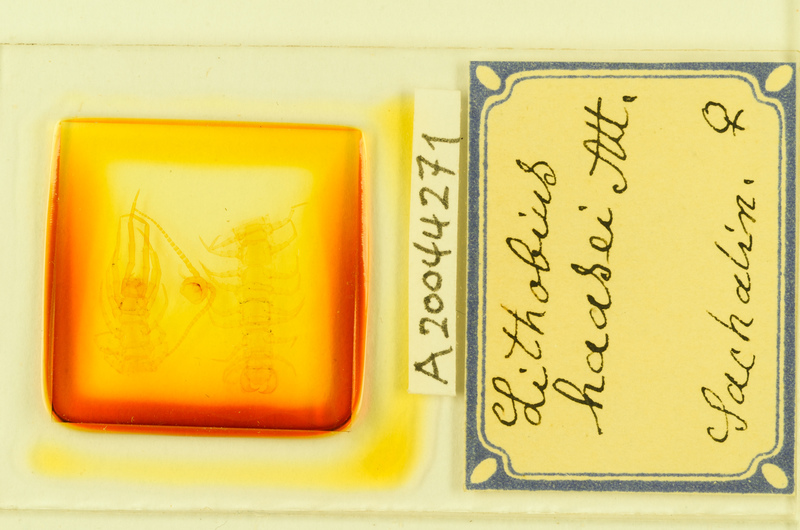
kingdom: Animalia
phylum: Arthropoda
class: Chilopoda
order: Lithobiomorpha
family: Lithobiidae
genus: Lithobius
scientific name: Lithobius rapax
